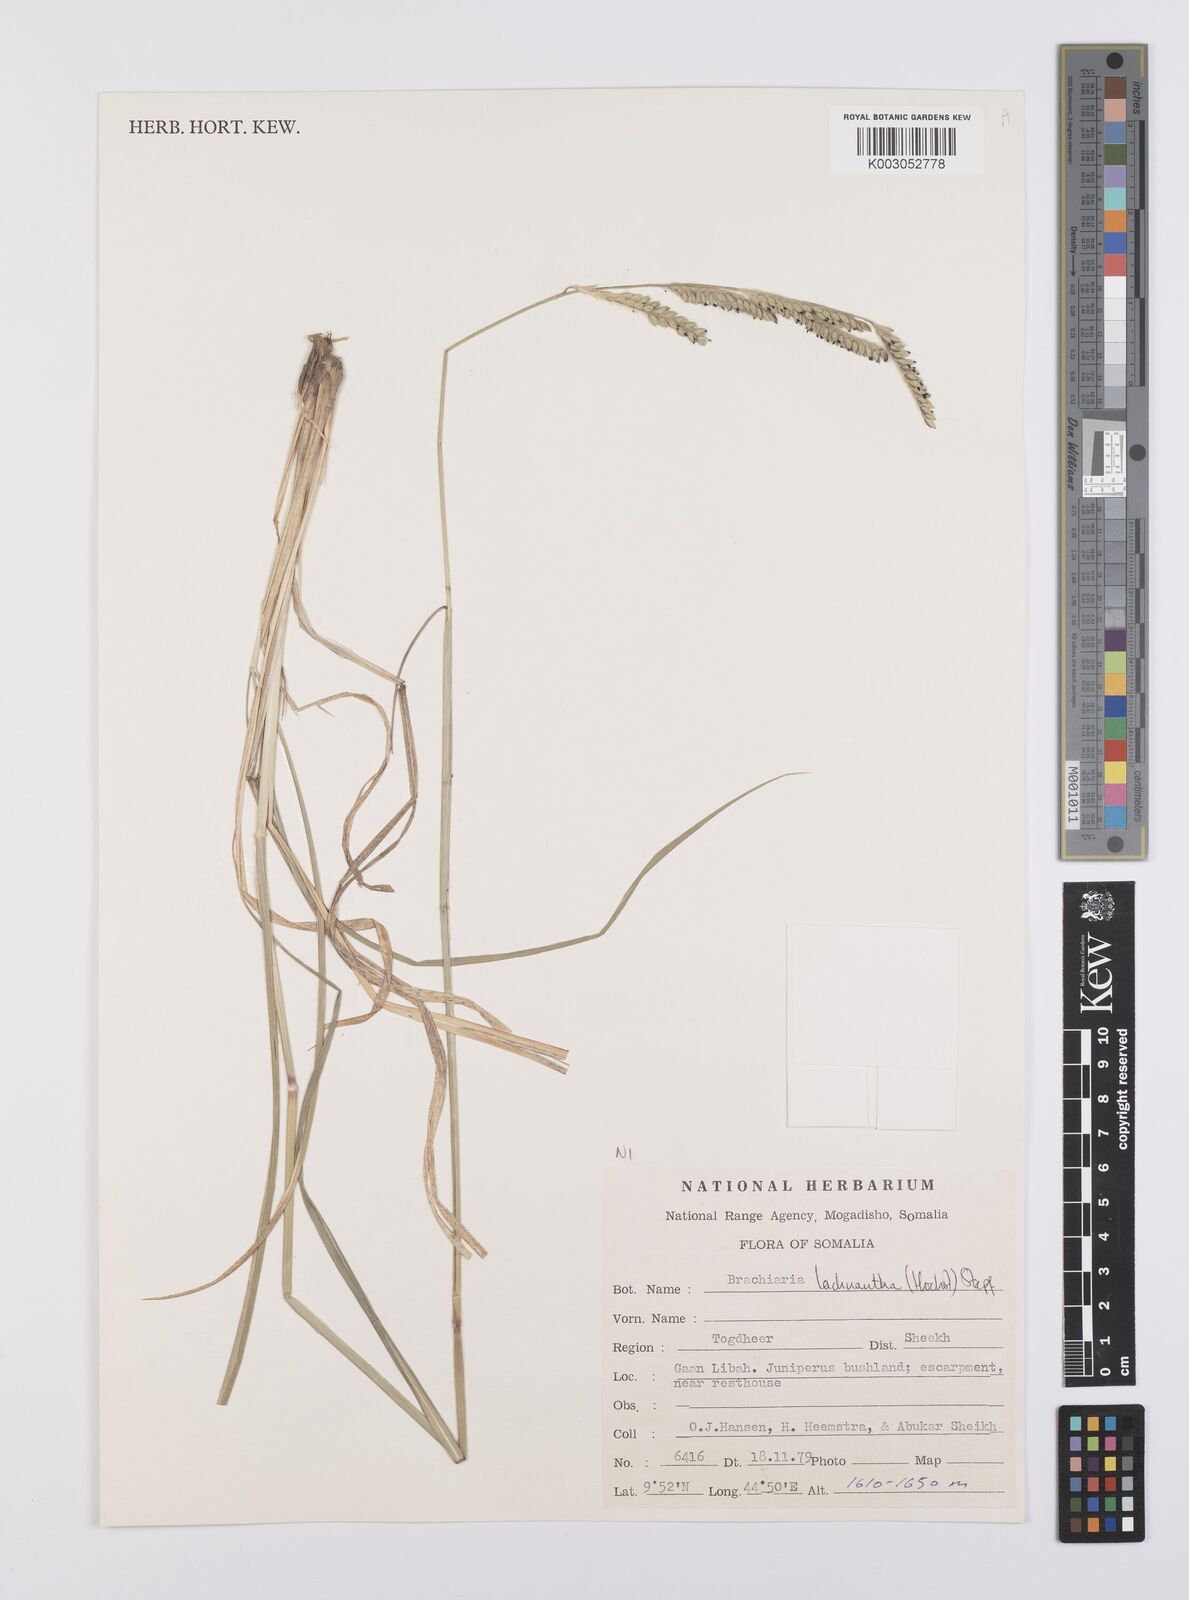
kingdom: Plantae
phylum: Tracheophyta
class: Liliopsida
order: Poales
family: Poaceae
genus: Urochloa
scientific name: Urochloa lachnantha
